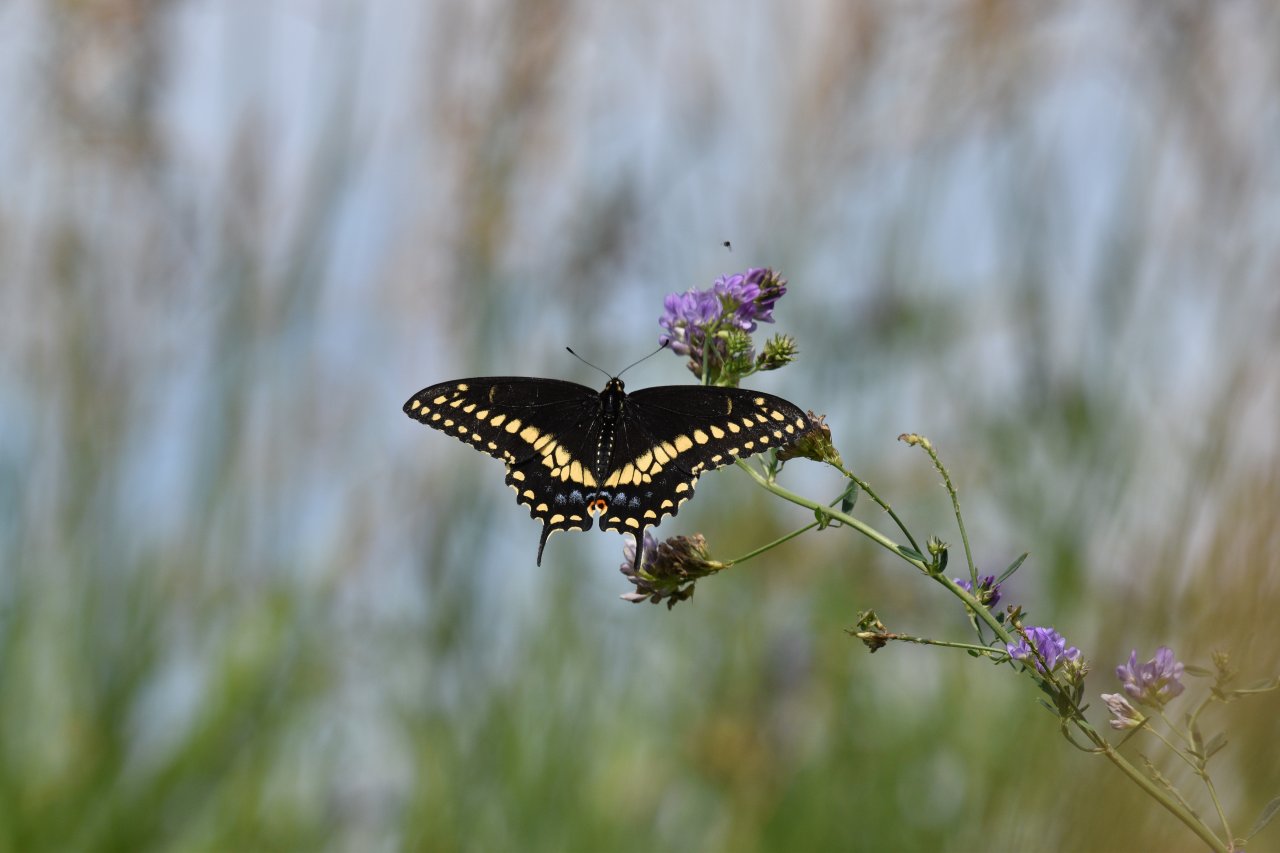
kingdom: Animalia
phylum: Arthropoda
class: Insecta
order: Lepidoptera
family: Papilionidae
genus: Papilio
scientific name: Papilio polyxenes
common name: Black Swallowtail
